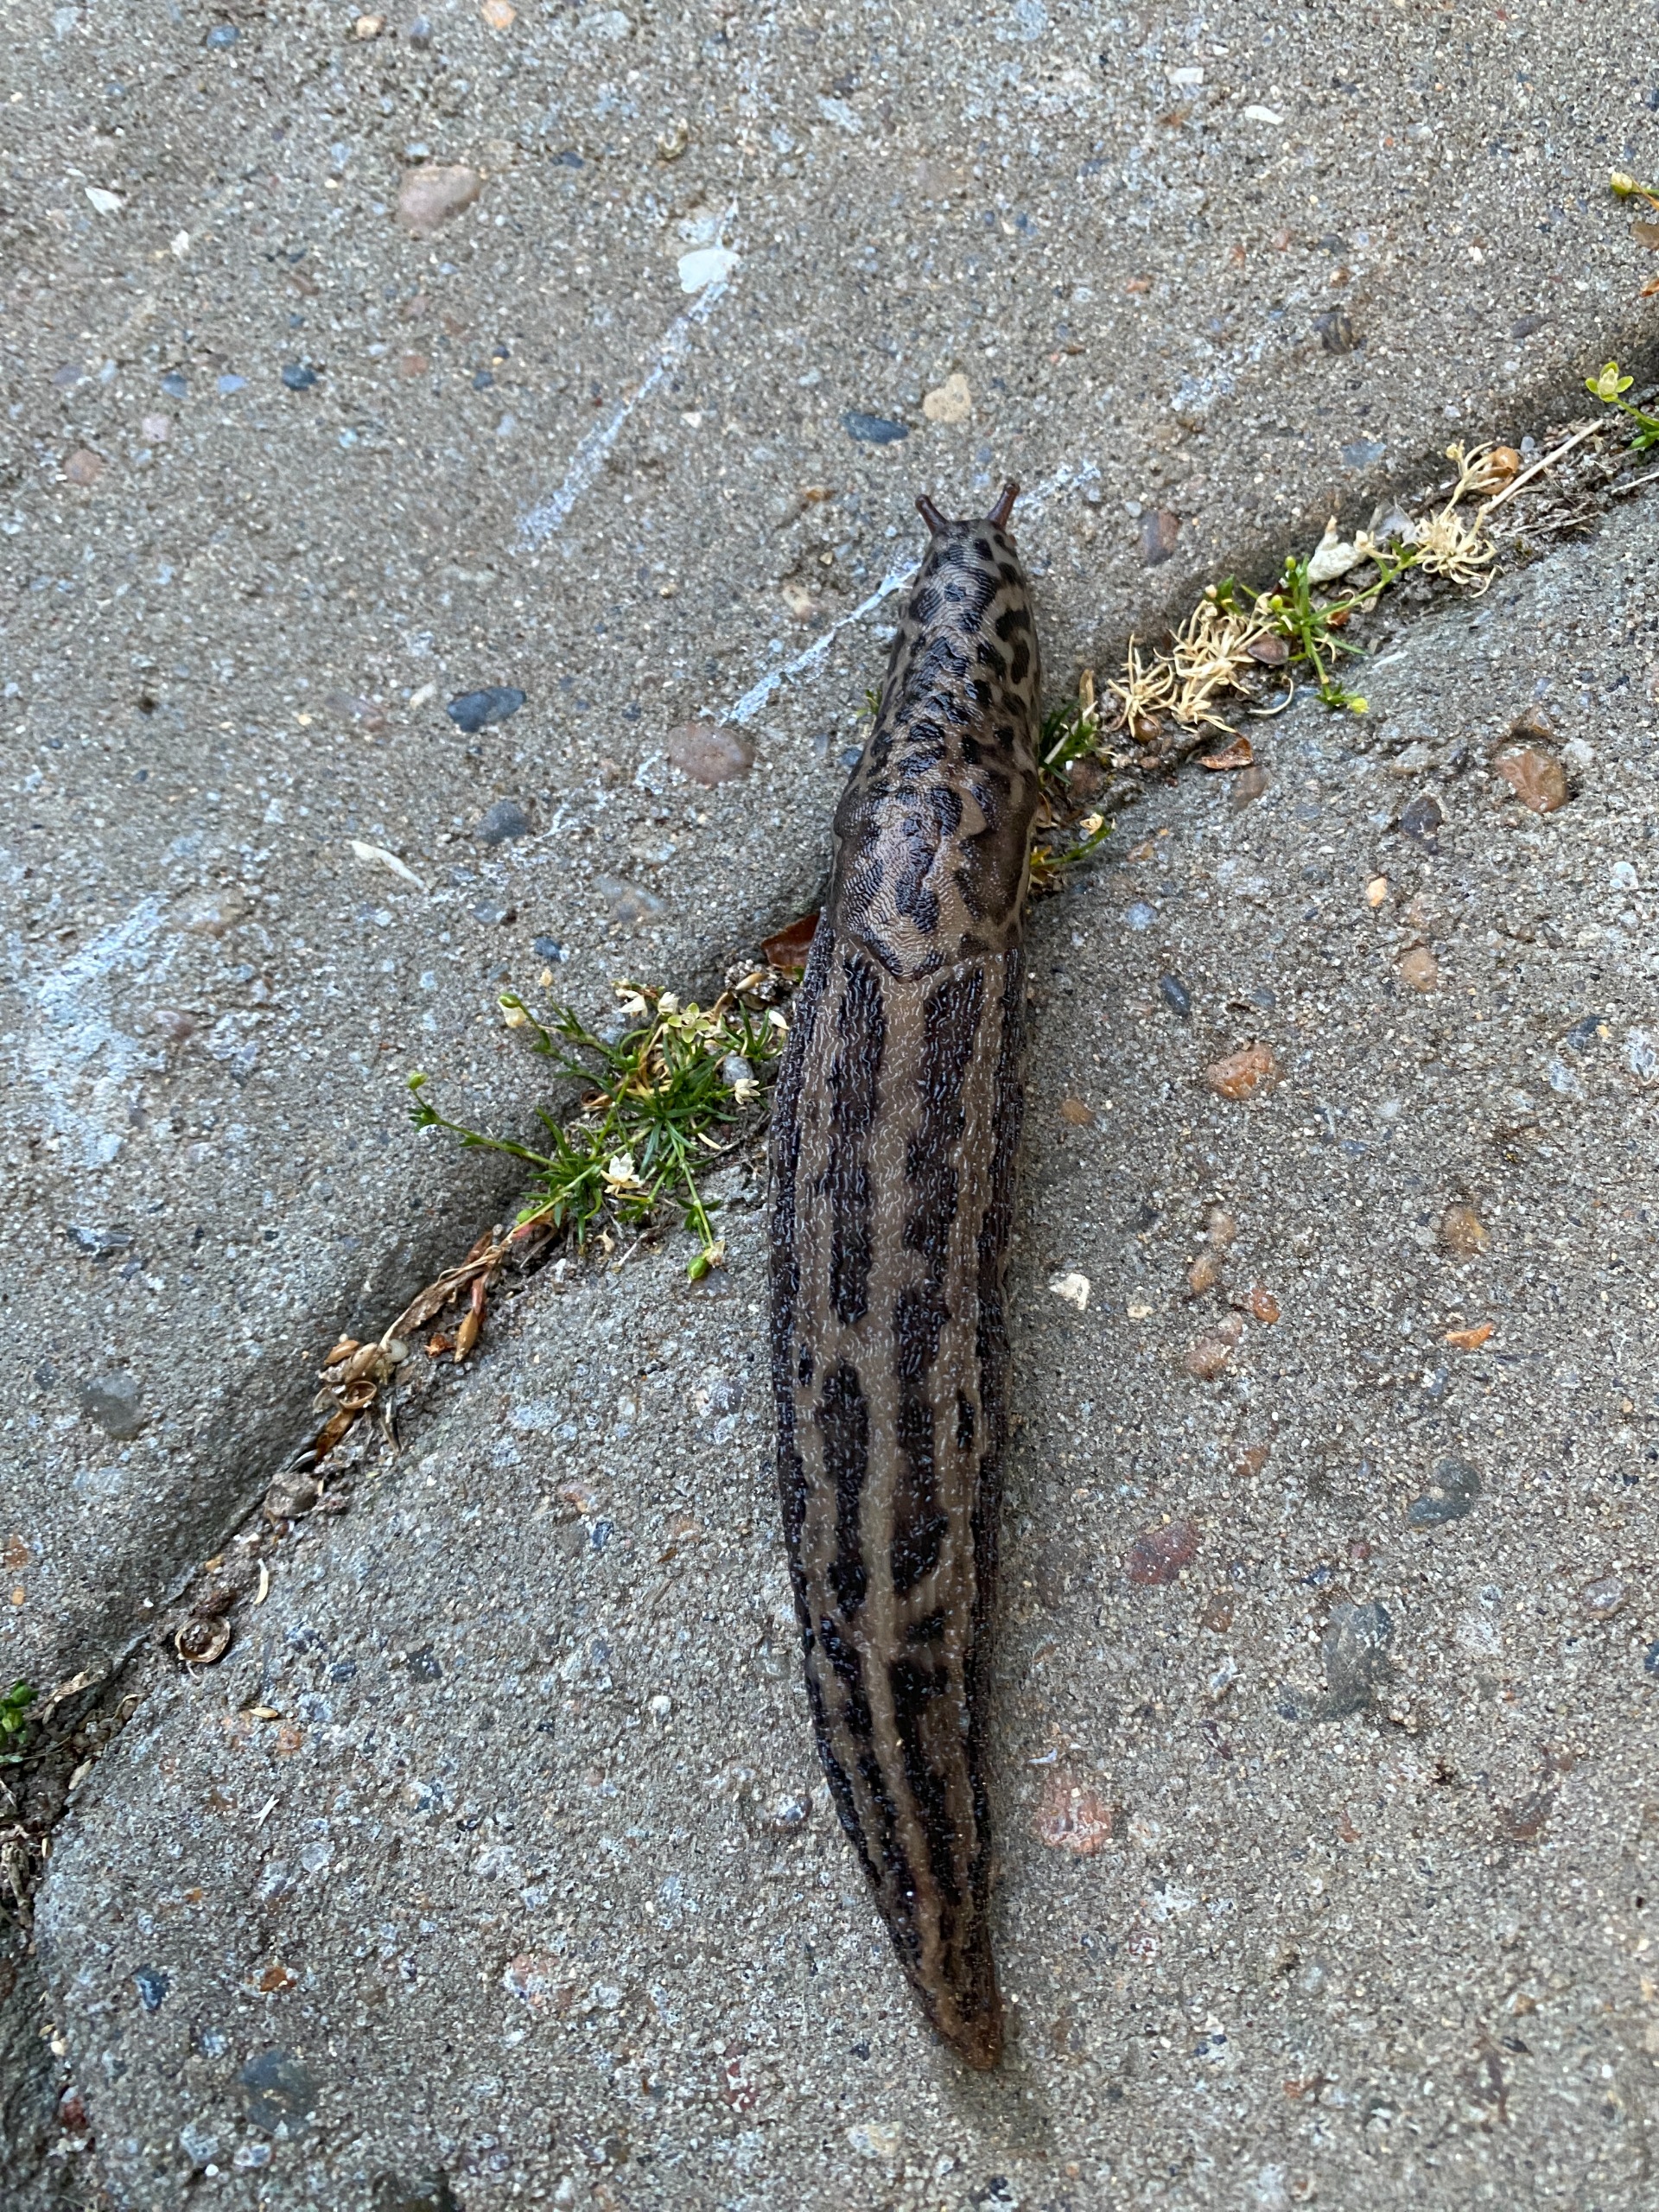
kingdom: Animalia
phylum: Mollusca
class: Gastropoda
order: Stylommatophora
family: Limacidae
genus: Limax
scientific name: Limax maximus
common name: Pantersnegl
